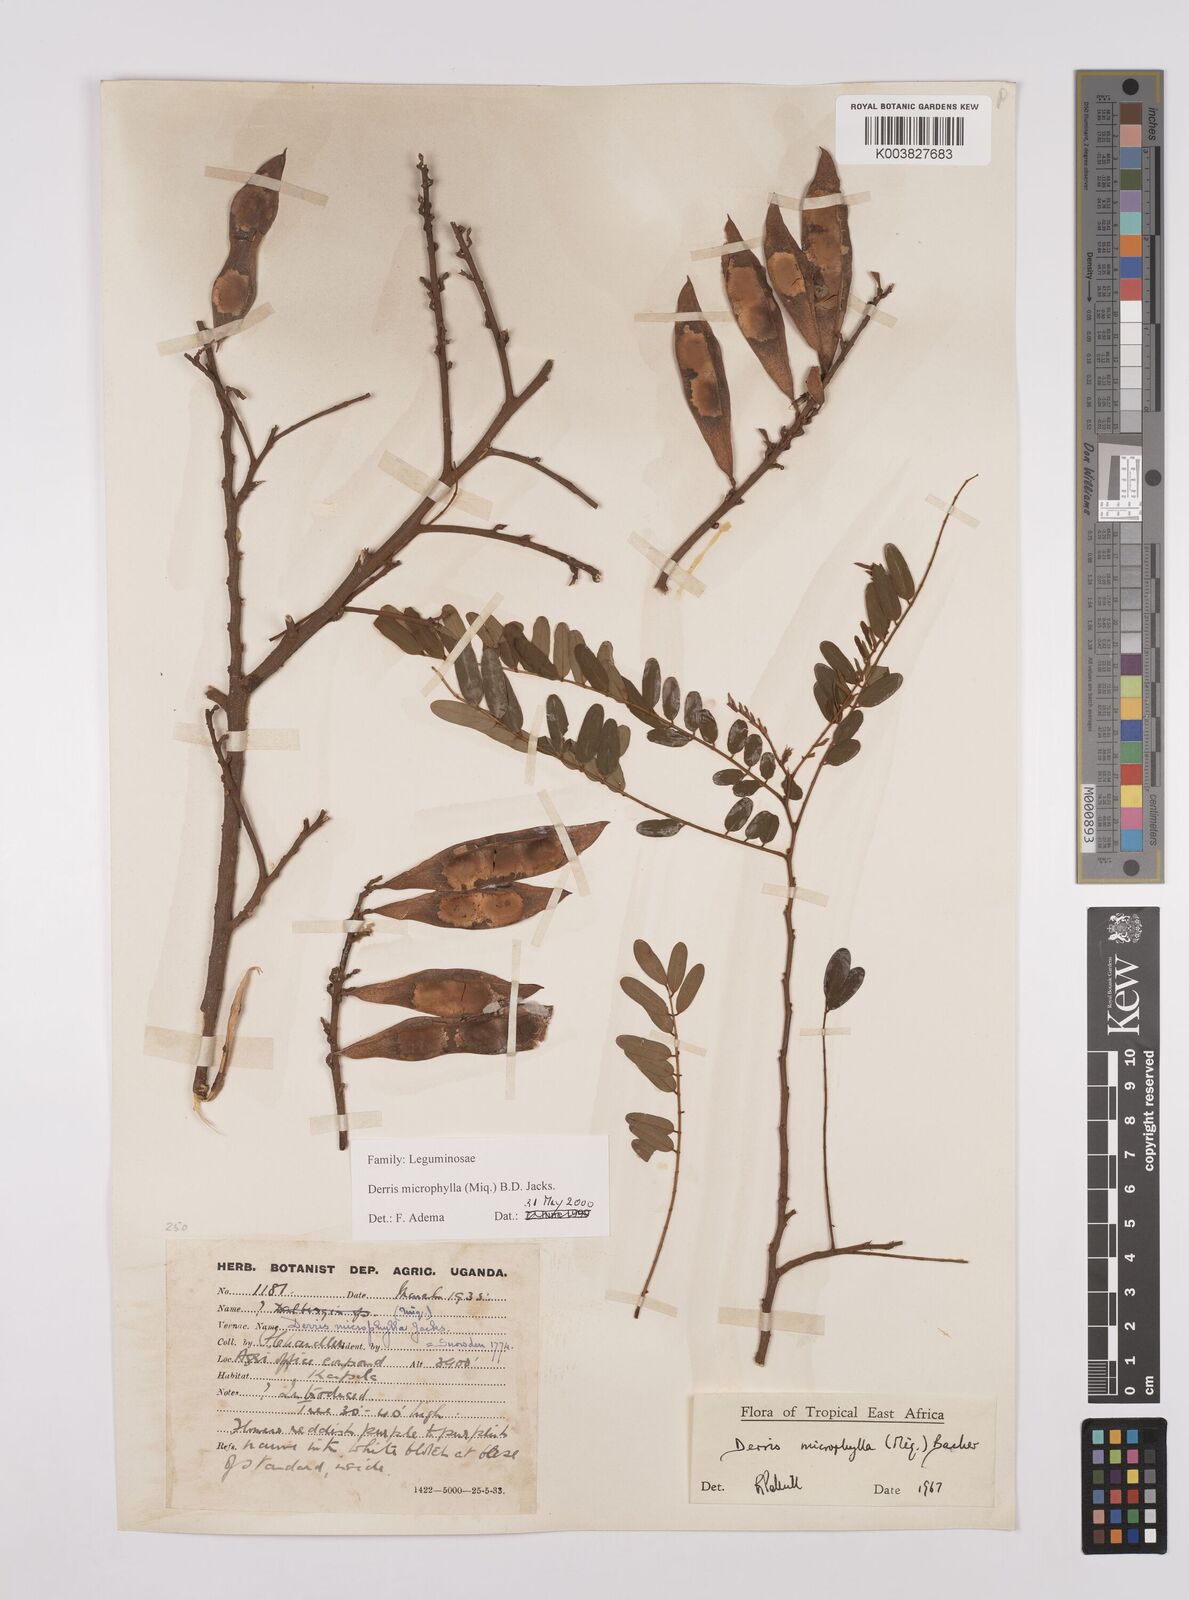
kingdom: Plantae
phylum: Tracheophyta
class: Magnoliopsida
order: Fabales
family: Fabaceae
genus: Brachypterum
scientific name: Brachypterum microphyllum
